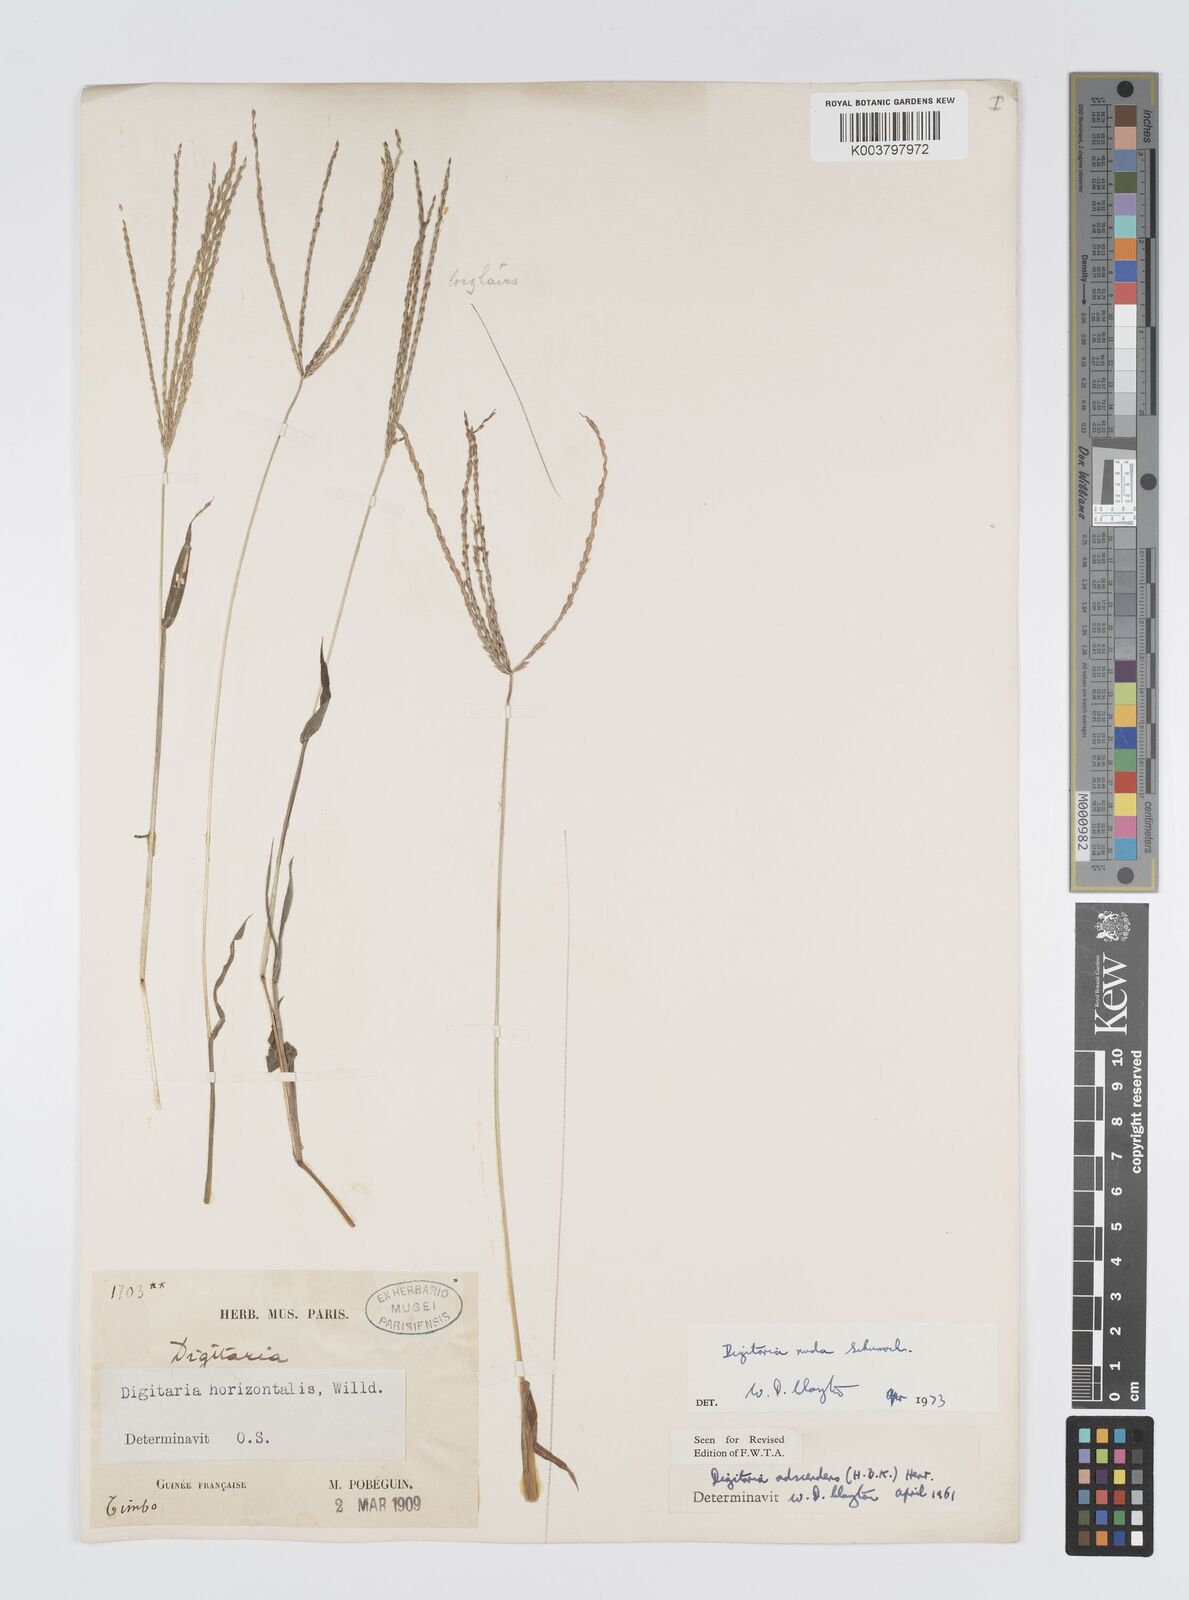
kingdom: Plantae
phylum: Tracheophyta
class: Liliopsida
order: Poales
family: Poaceae
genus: Digitaria
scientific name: Digitaria nuda
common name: Naked crabgrass
